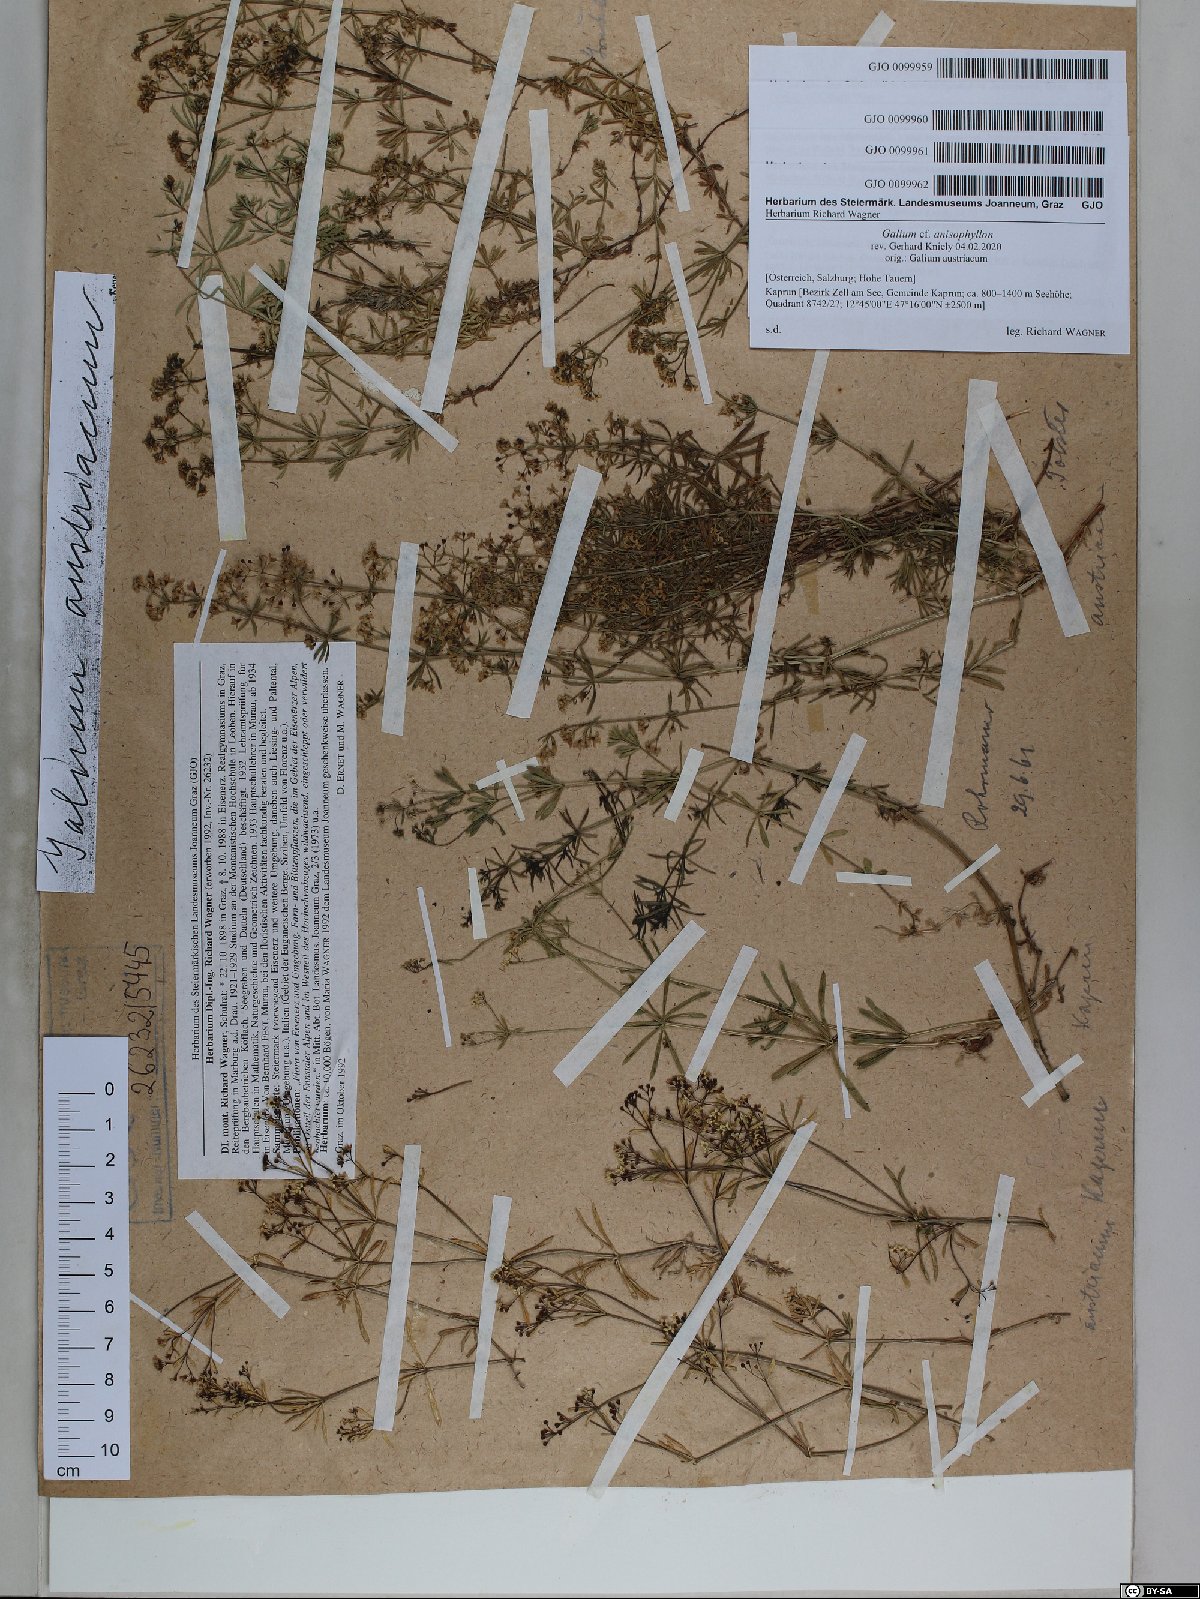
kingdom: Plantae
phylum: Tracheophyta
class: Magnoliopsida
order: Gentianales
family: Rubiaceae
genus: Galium
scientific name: Galium anisophyllon
